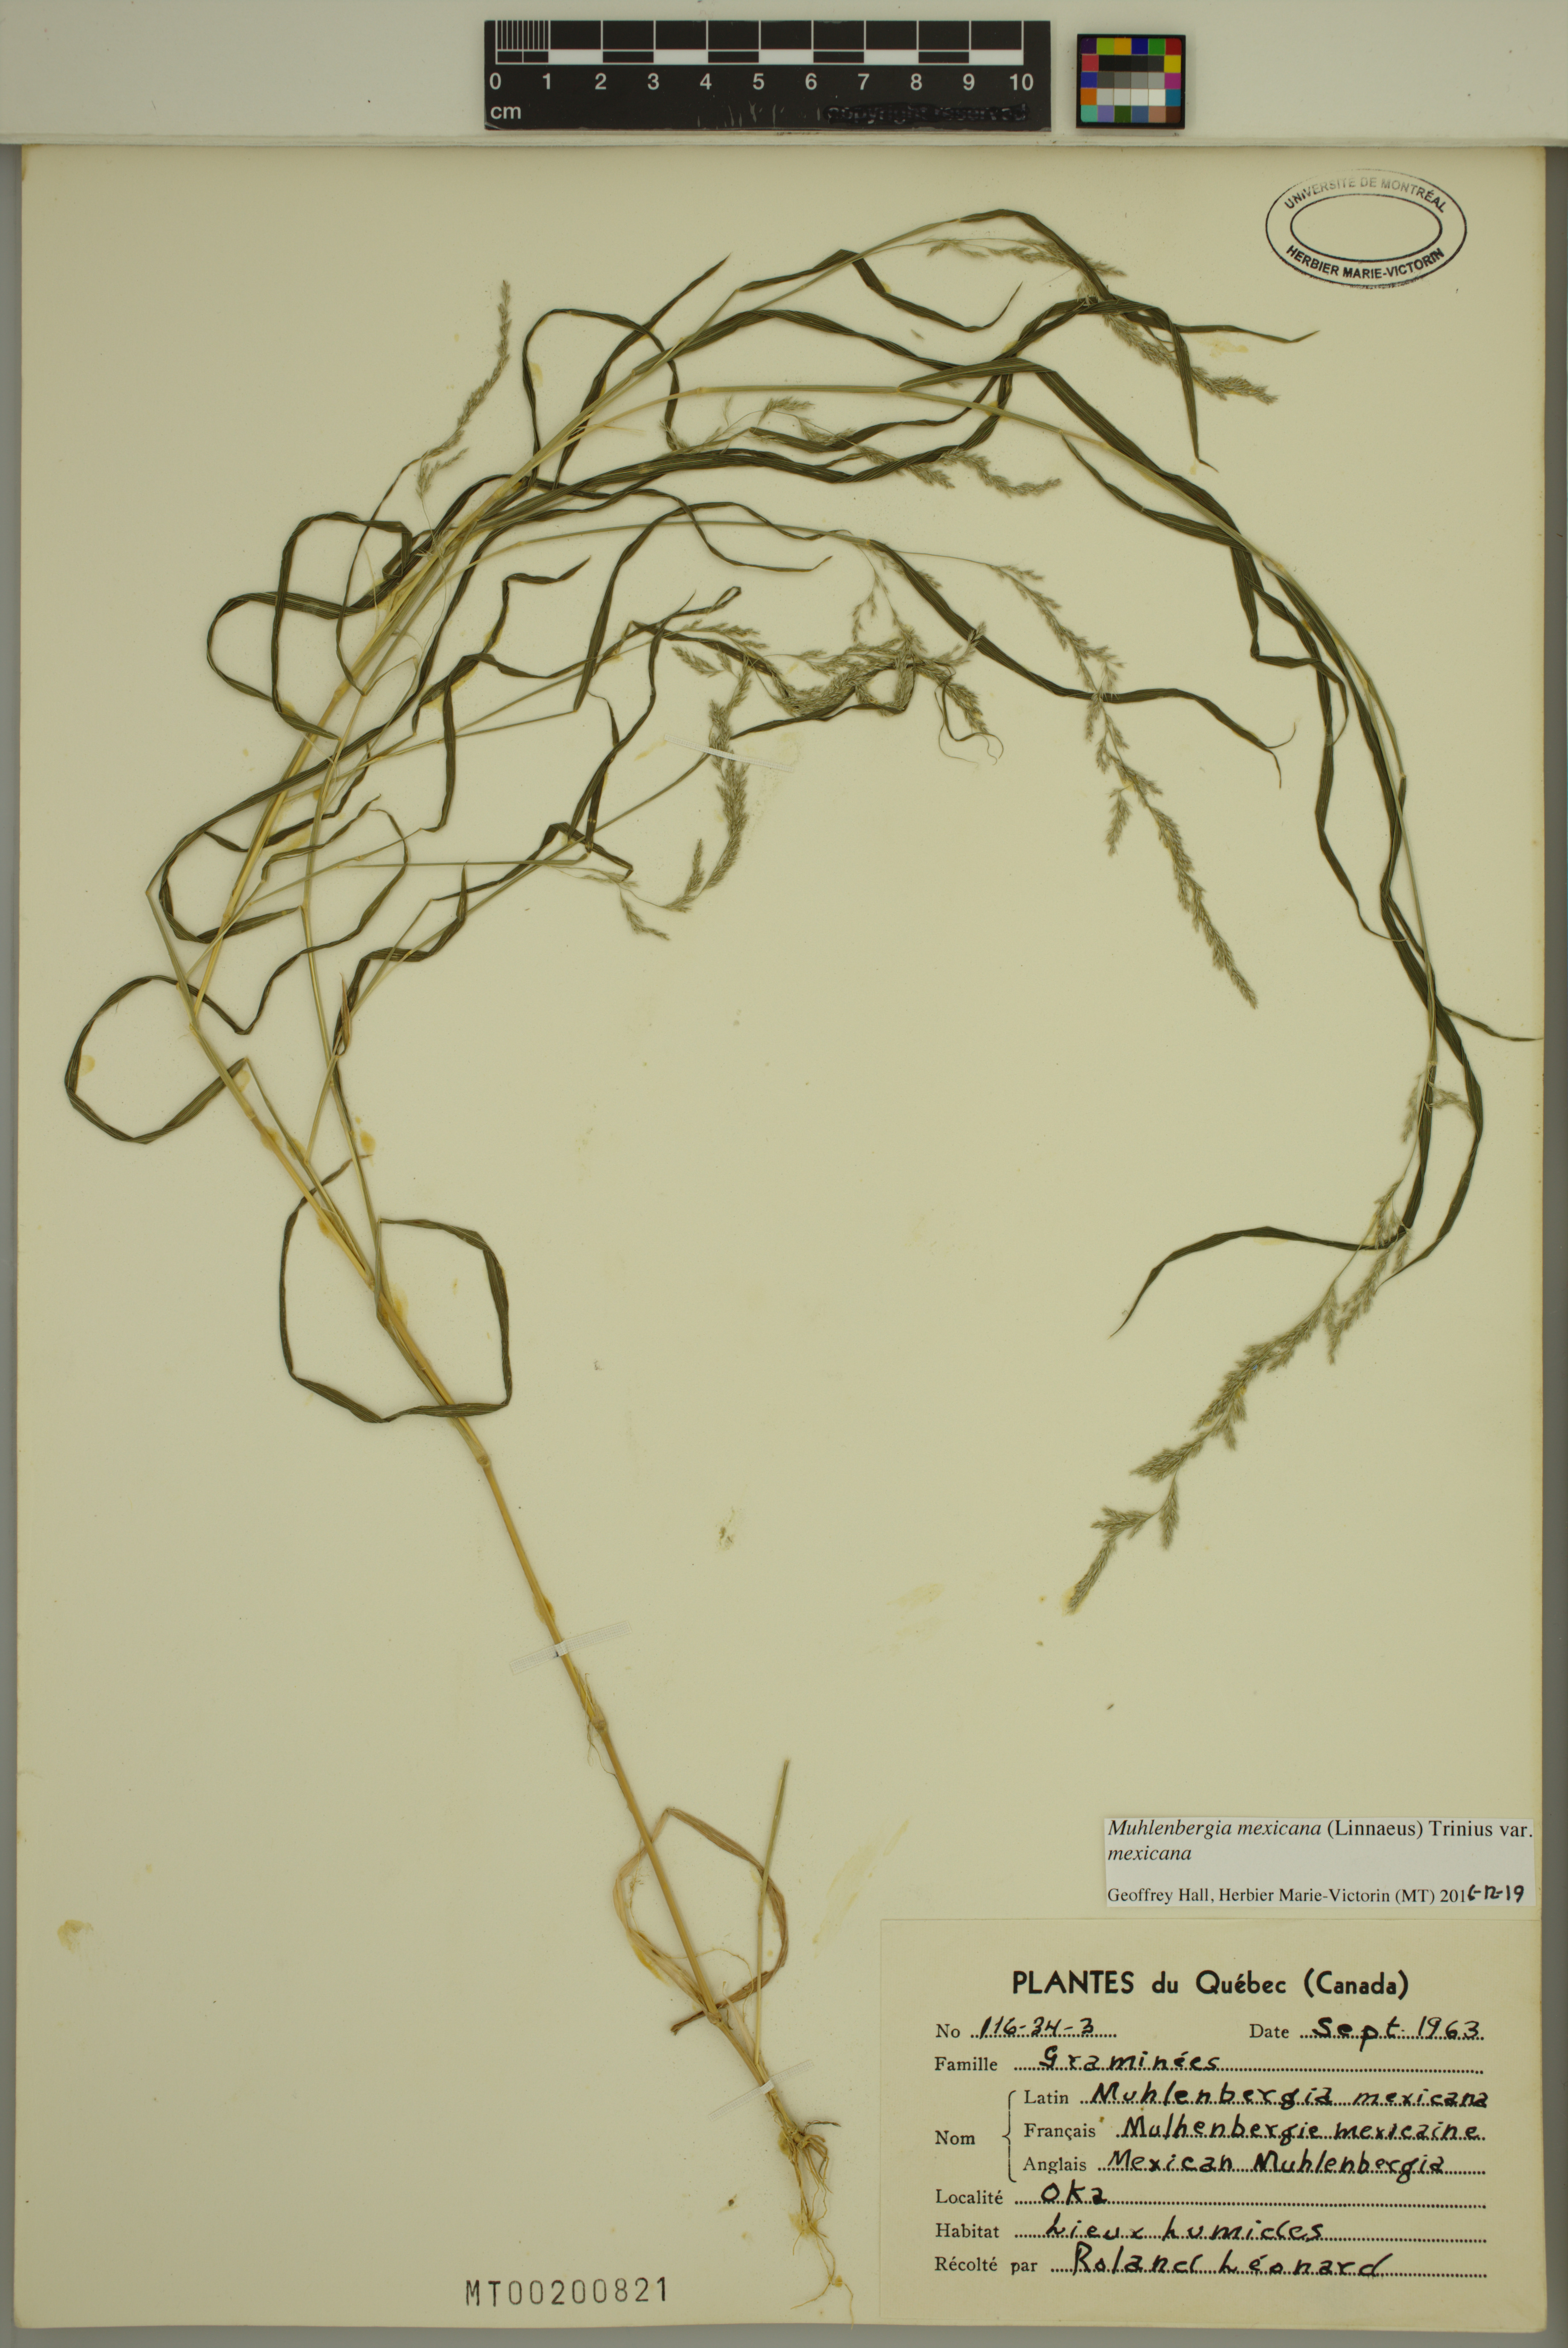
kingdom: Plantae
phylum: Tracheophyta
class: Liliopsida
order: Poales
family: Poaceae
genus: Muhlenbergia
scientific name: Muhlenbergia mexicana
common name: Mexican muhly
